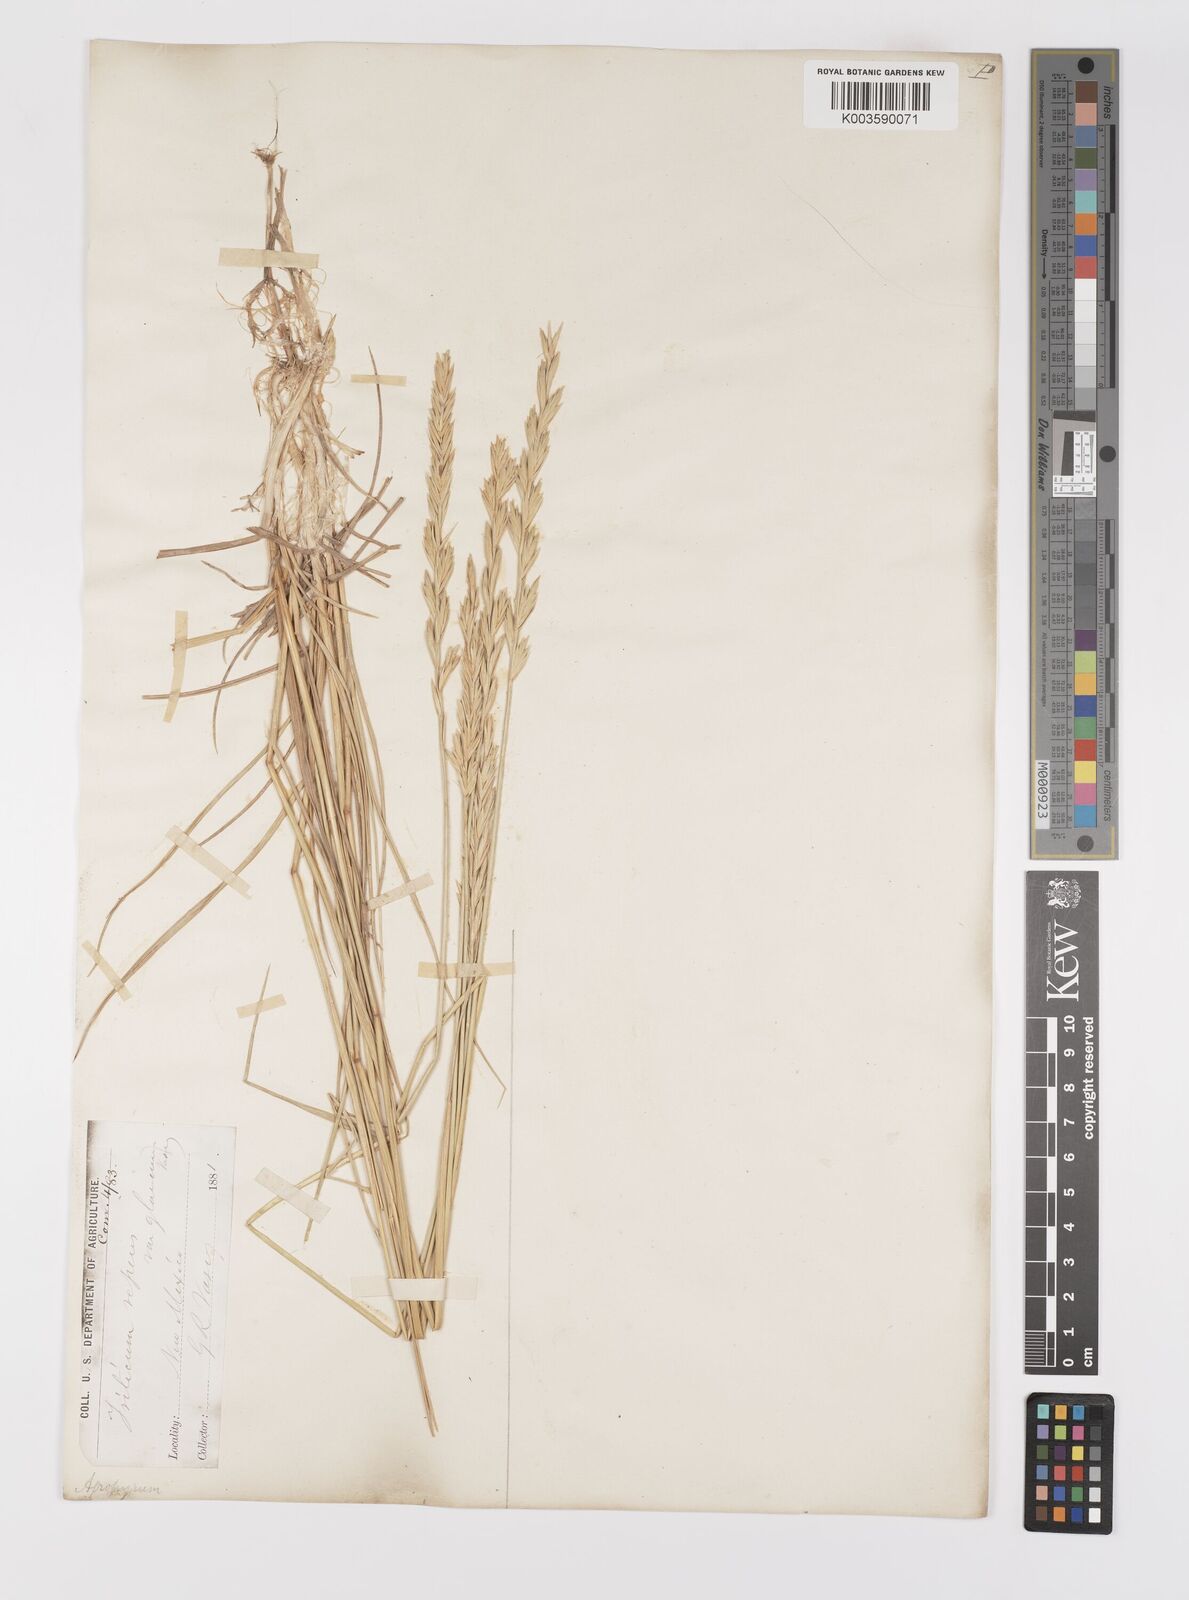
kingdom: Plantae
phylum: Tracheophyta
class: Liliopsida
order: Poales
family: Poaceae
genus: Elymus
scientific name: Elymus repens
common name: Quackgrass
